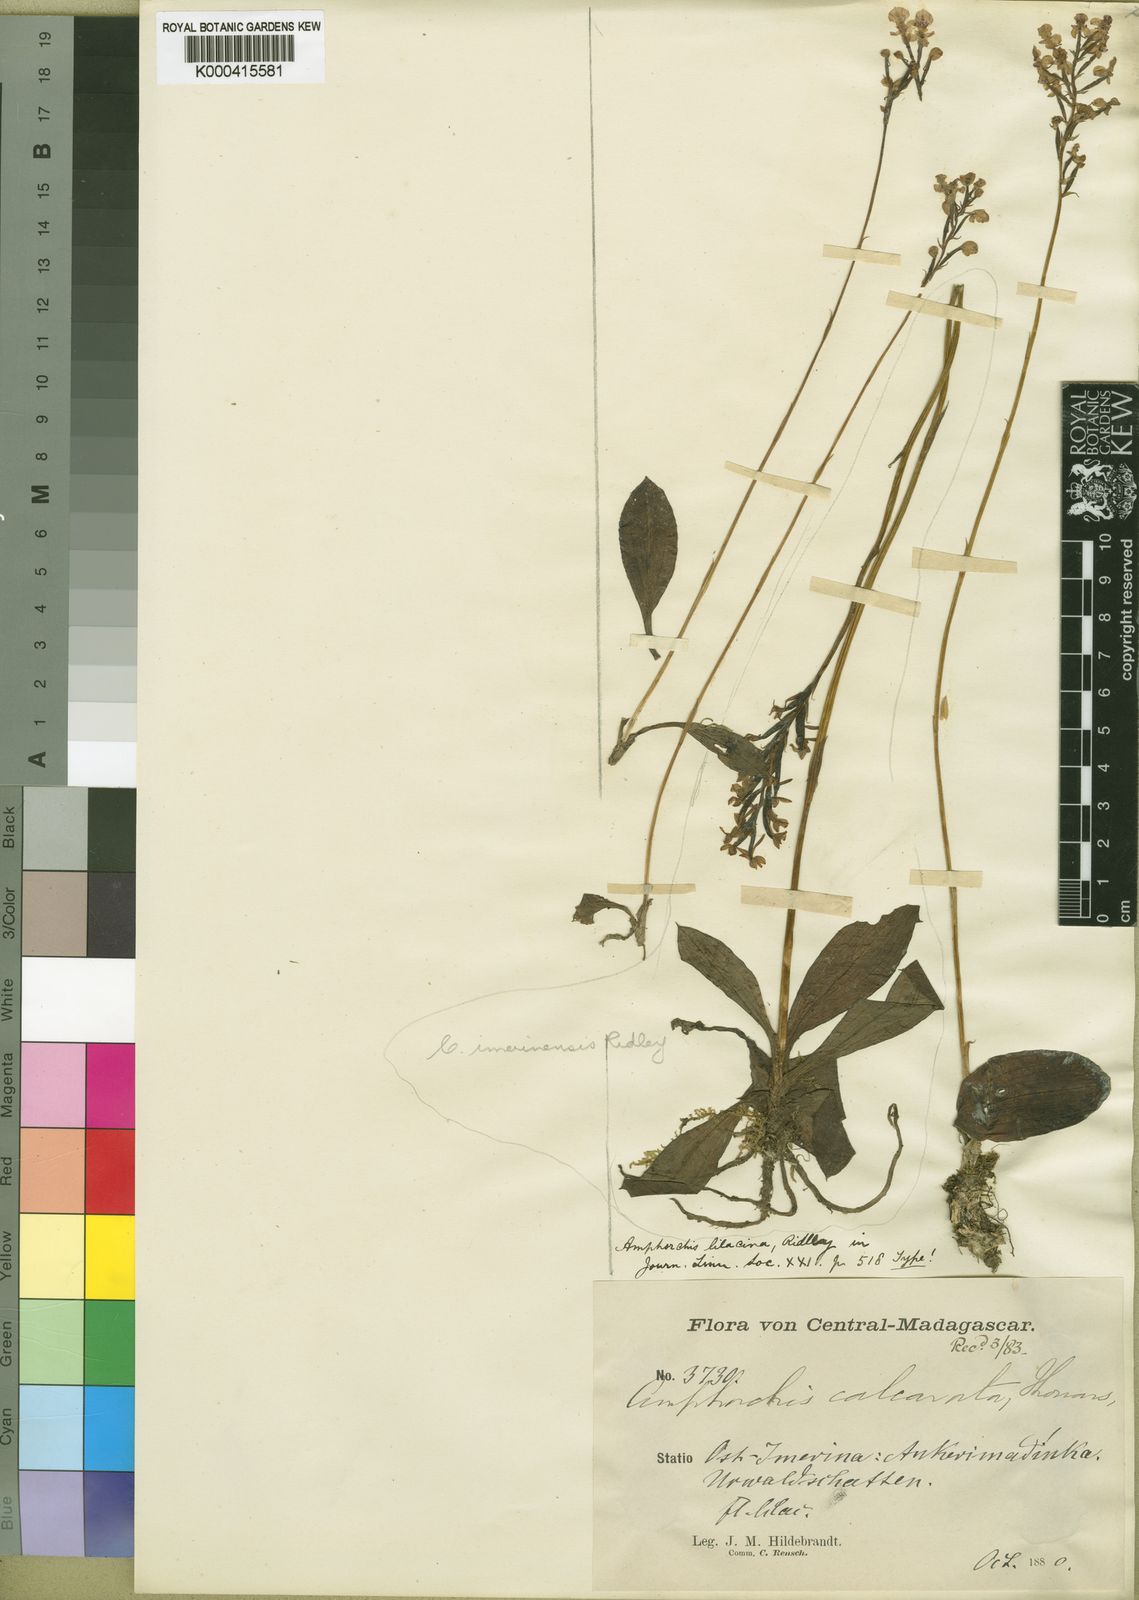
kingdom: Plantae
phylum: Tracheophyta
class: Liliopsida
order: Asparagales
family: Orchidaceae
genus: Cynorkis
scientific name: Cynorkis ridleyi
